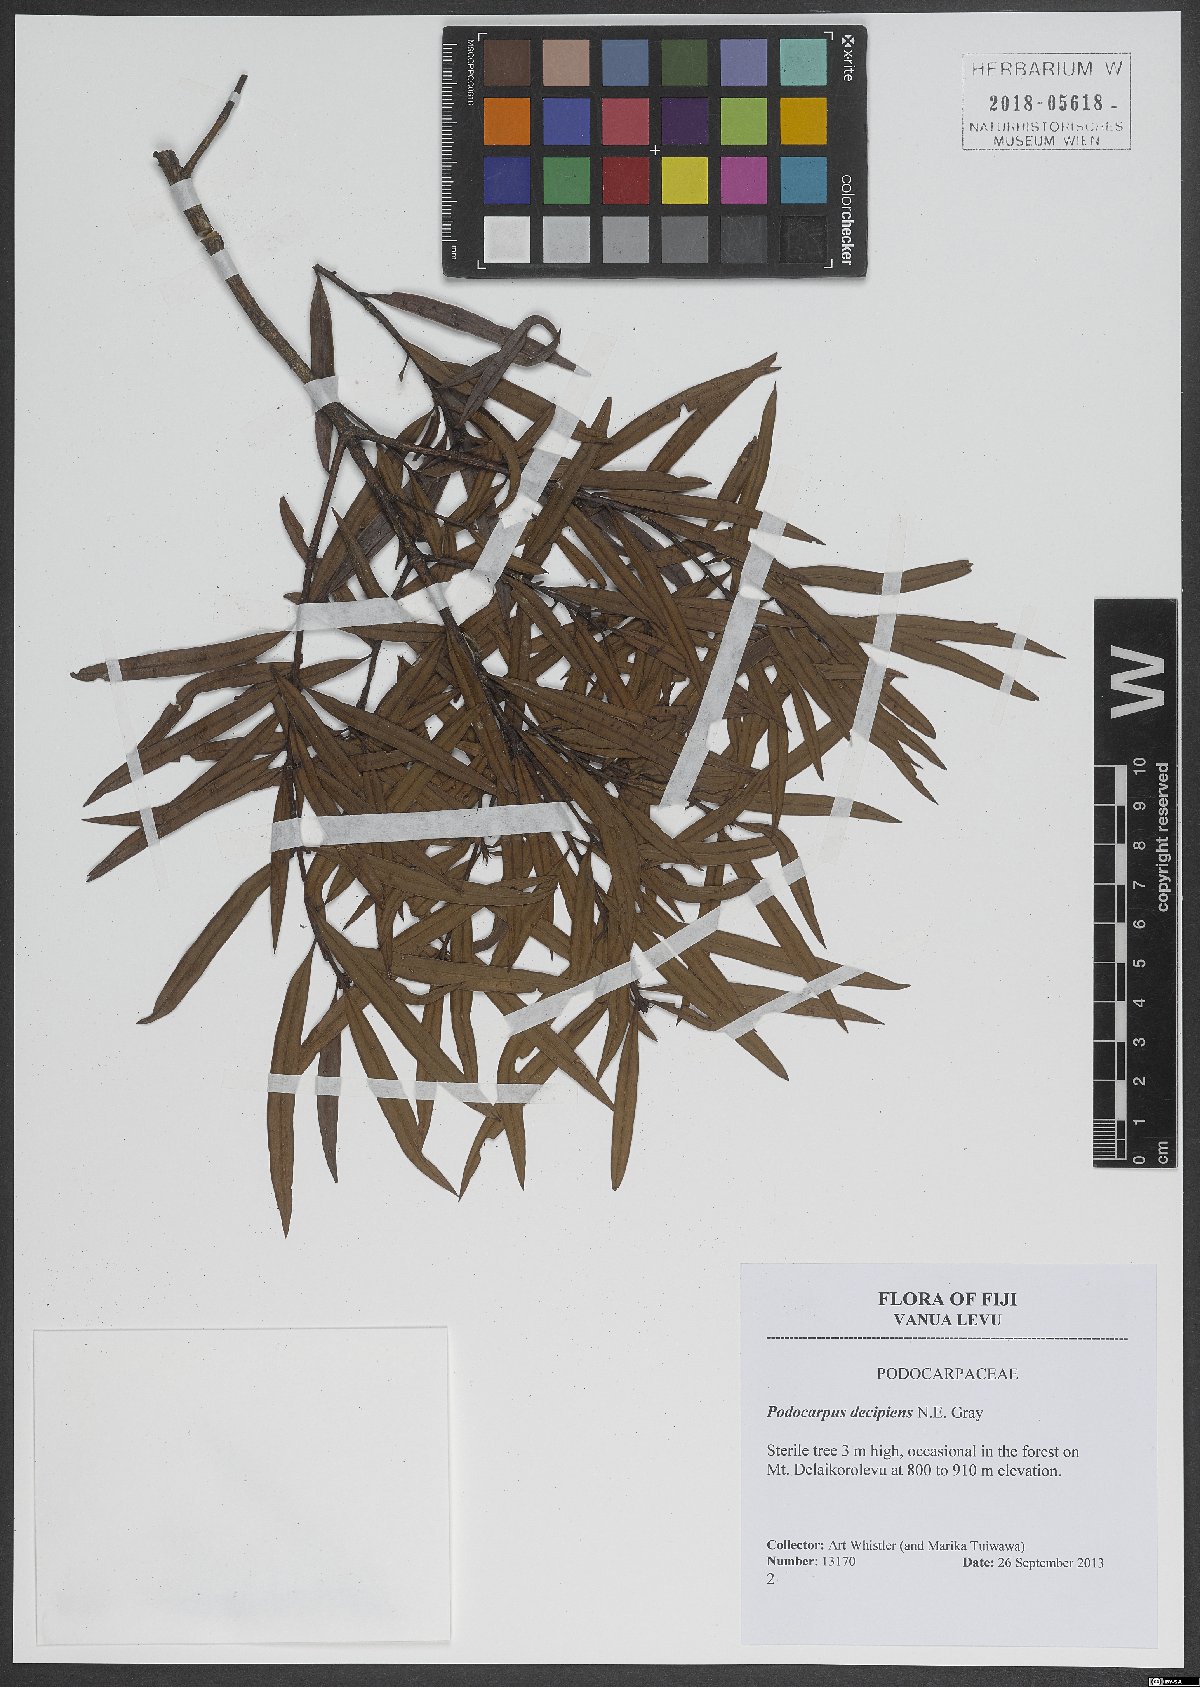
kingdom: Plantae
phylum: Tracheophyta
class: Pinopsida
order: Pinales
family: Podocarpaceae
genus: Podocarpus
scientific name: Podocarpus neriifolius
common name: Brown pine
